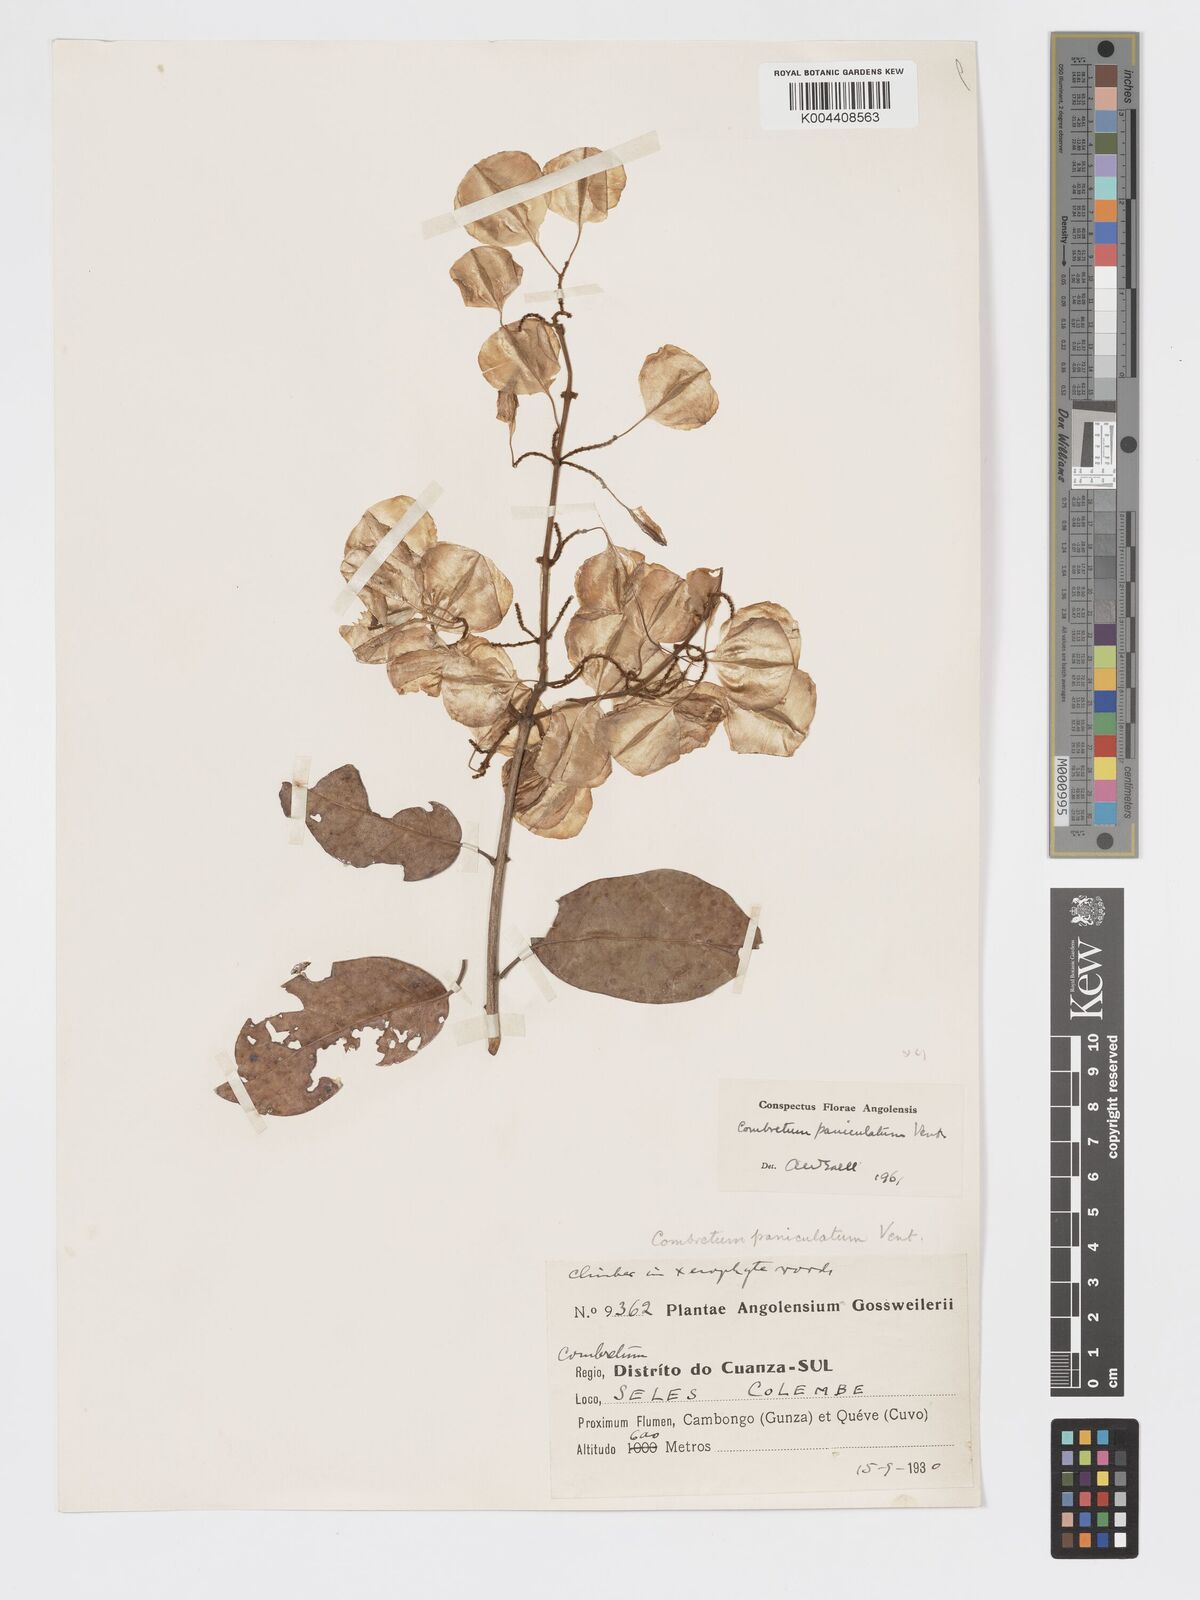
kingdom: Plantae
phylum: Tracheophyta
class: Magnoliopsida
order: Myrtales
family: Combretaceae
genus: Combretum
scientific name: Combretum paniculatum
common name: Fire vine
